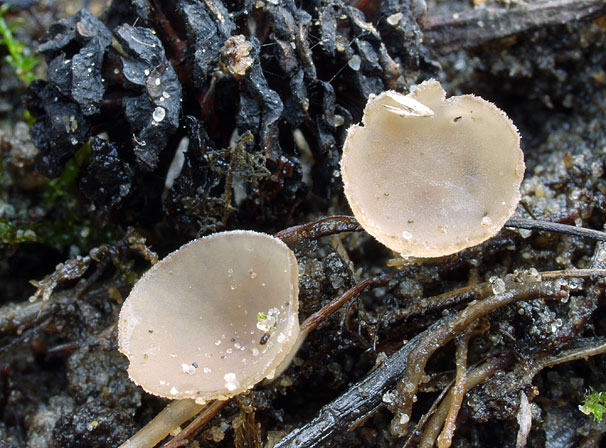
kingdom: Fungi
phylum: Ascomycota
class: Leotiomycetes
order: Helotiales
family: Sclerotiniaceae
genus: Ciboria
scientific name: Ciboria amentacea
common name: ellerakle-knoldskive
